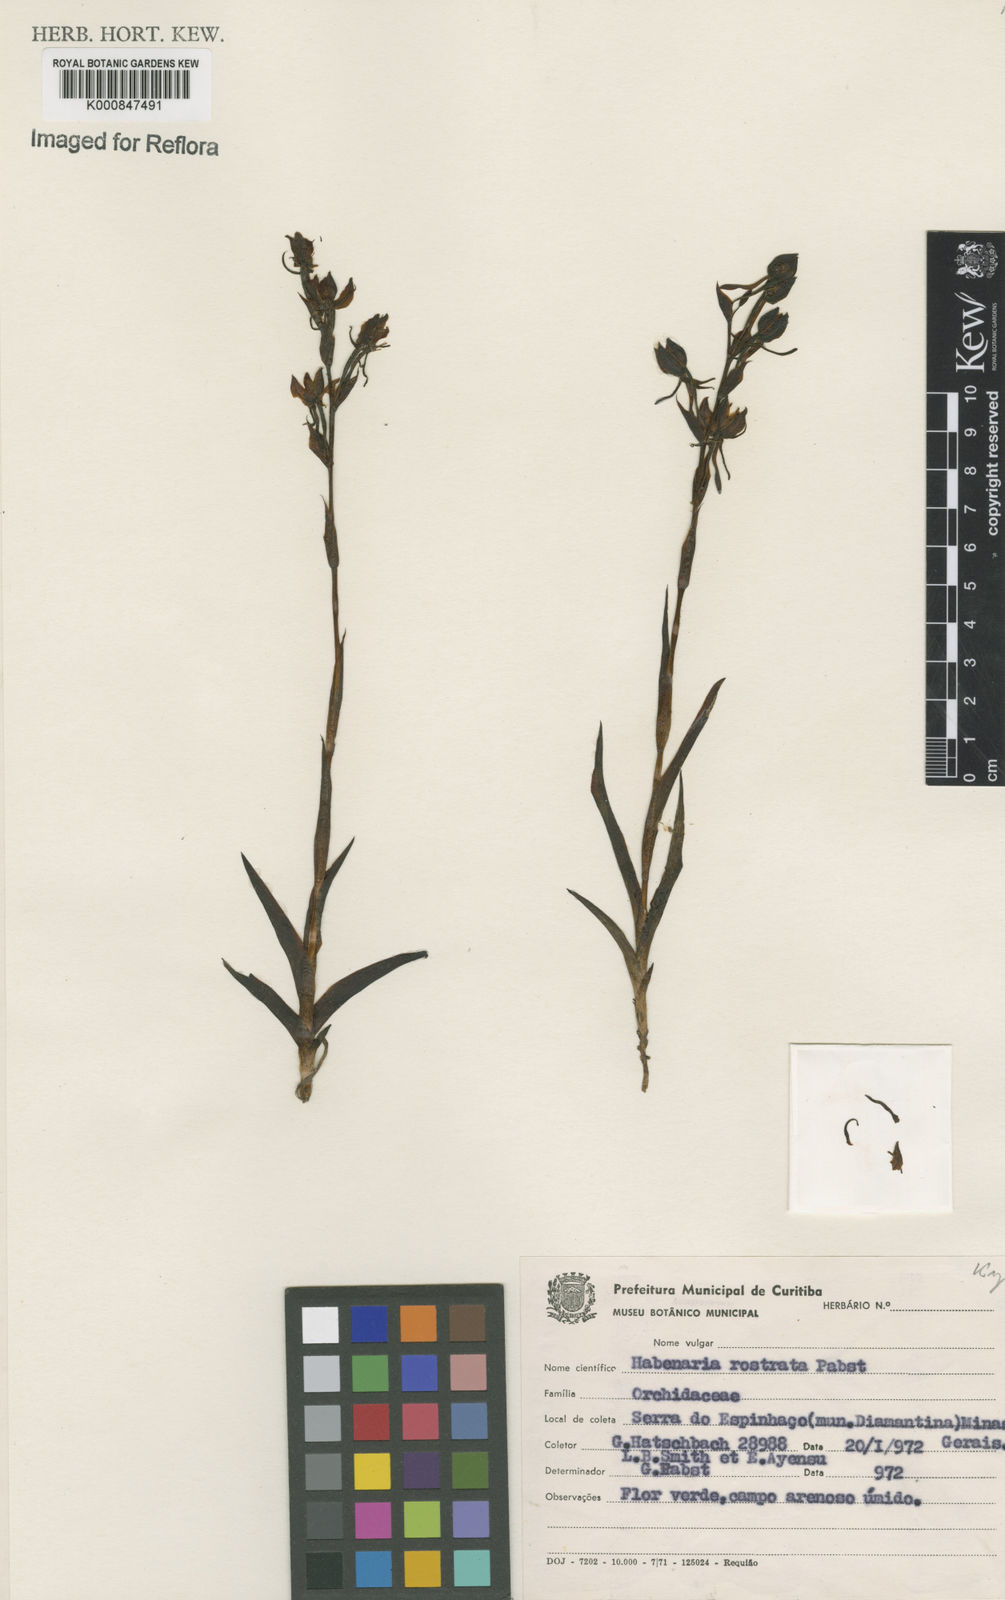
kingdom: Plantae
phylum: Tracheophyta
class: Liliopsida
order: Asparagales
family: Orchidaceae
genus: Habenaria
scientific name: Habenaria magniscutata
